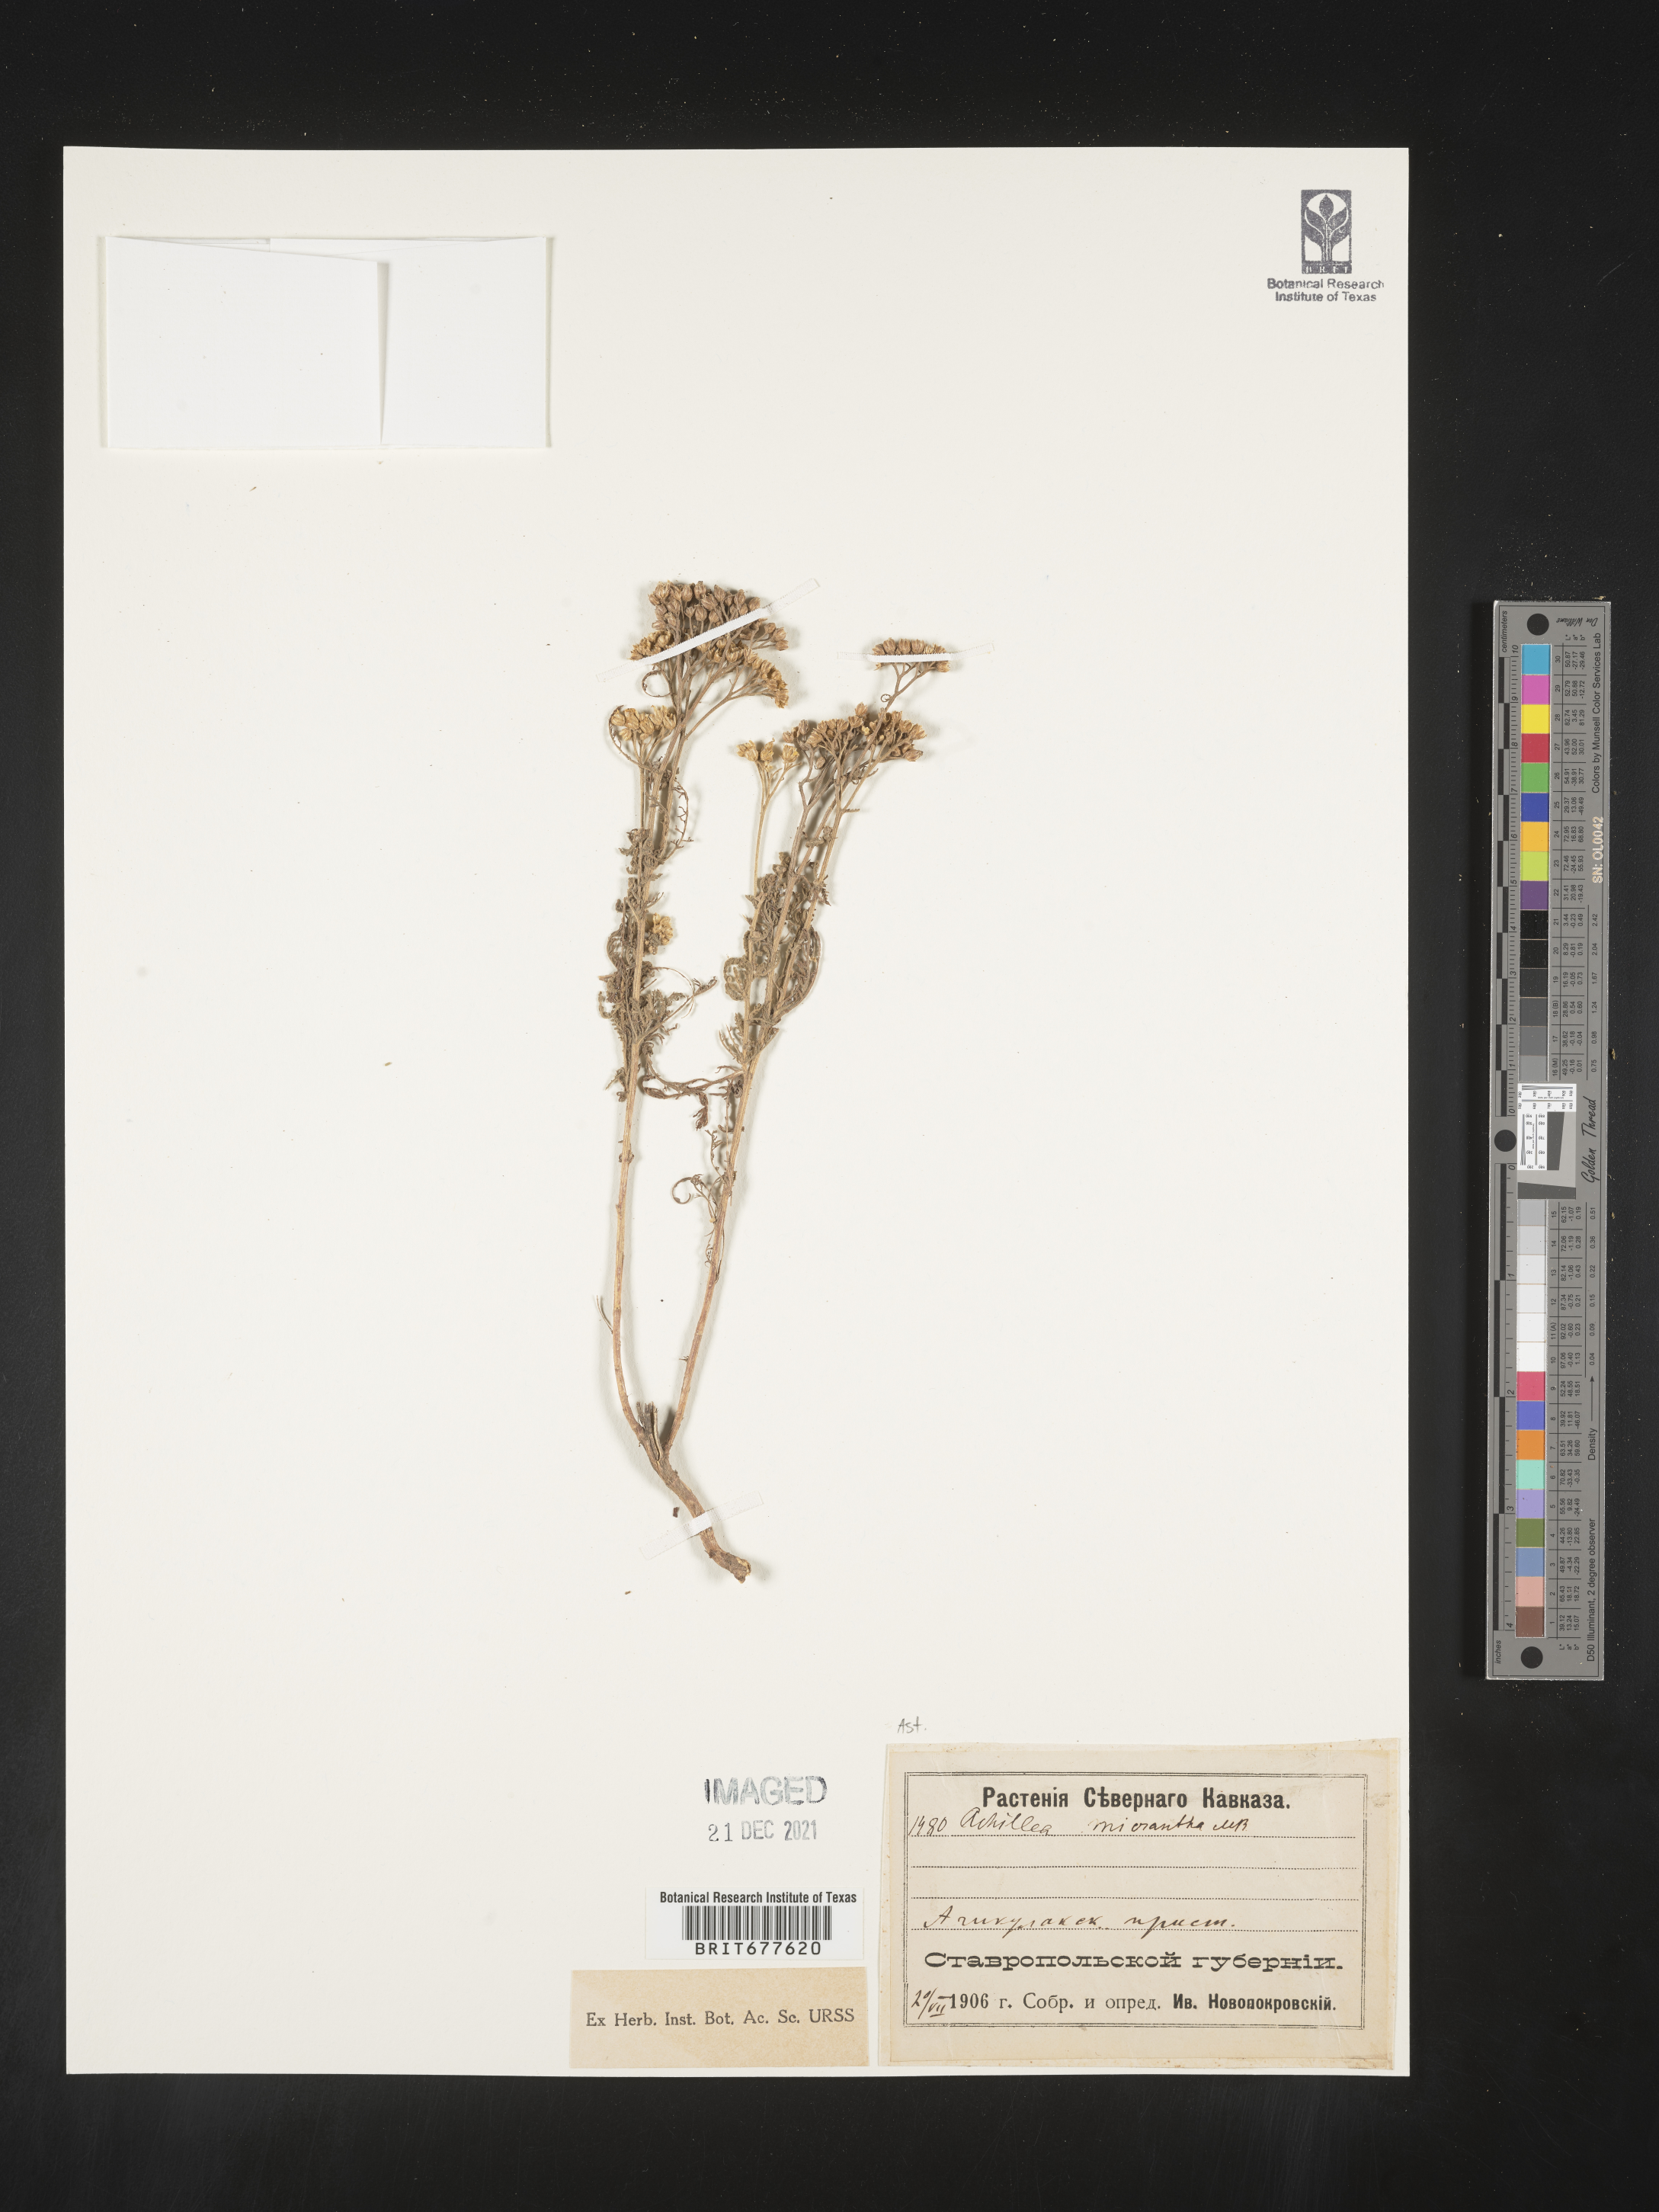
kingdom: Plantae
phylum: Tracheophyta
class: Magnoliopsida
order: Asterales
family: Asteraceae
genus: Achillea
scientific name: Achillea millefolium
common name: Yarrow
